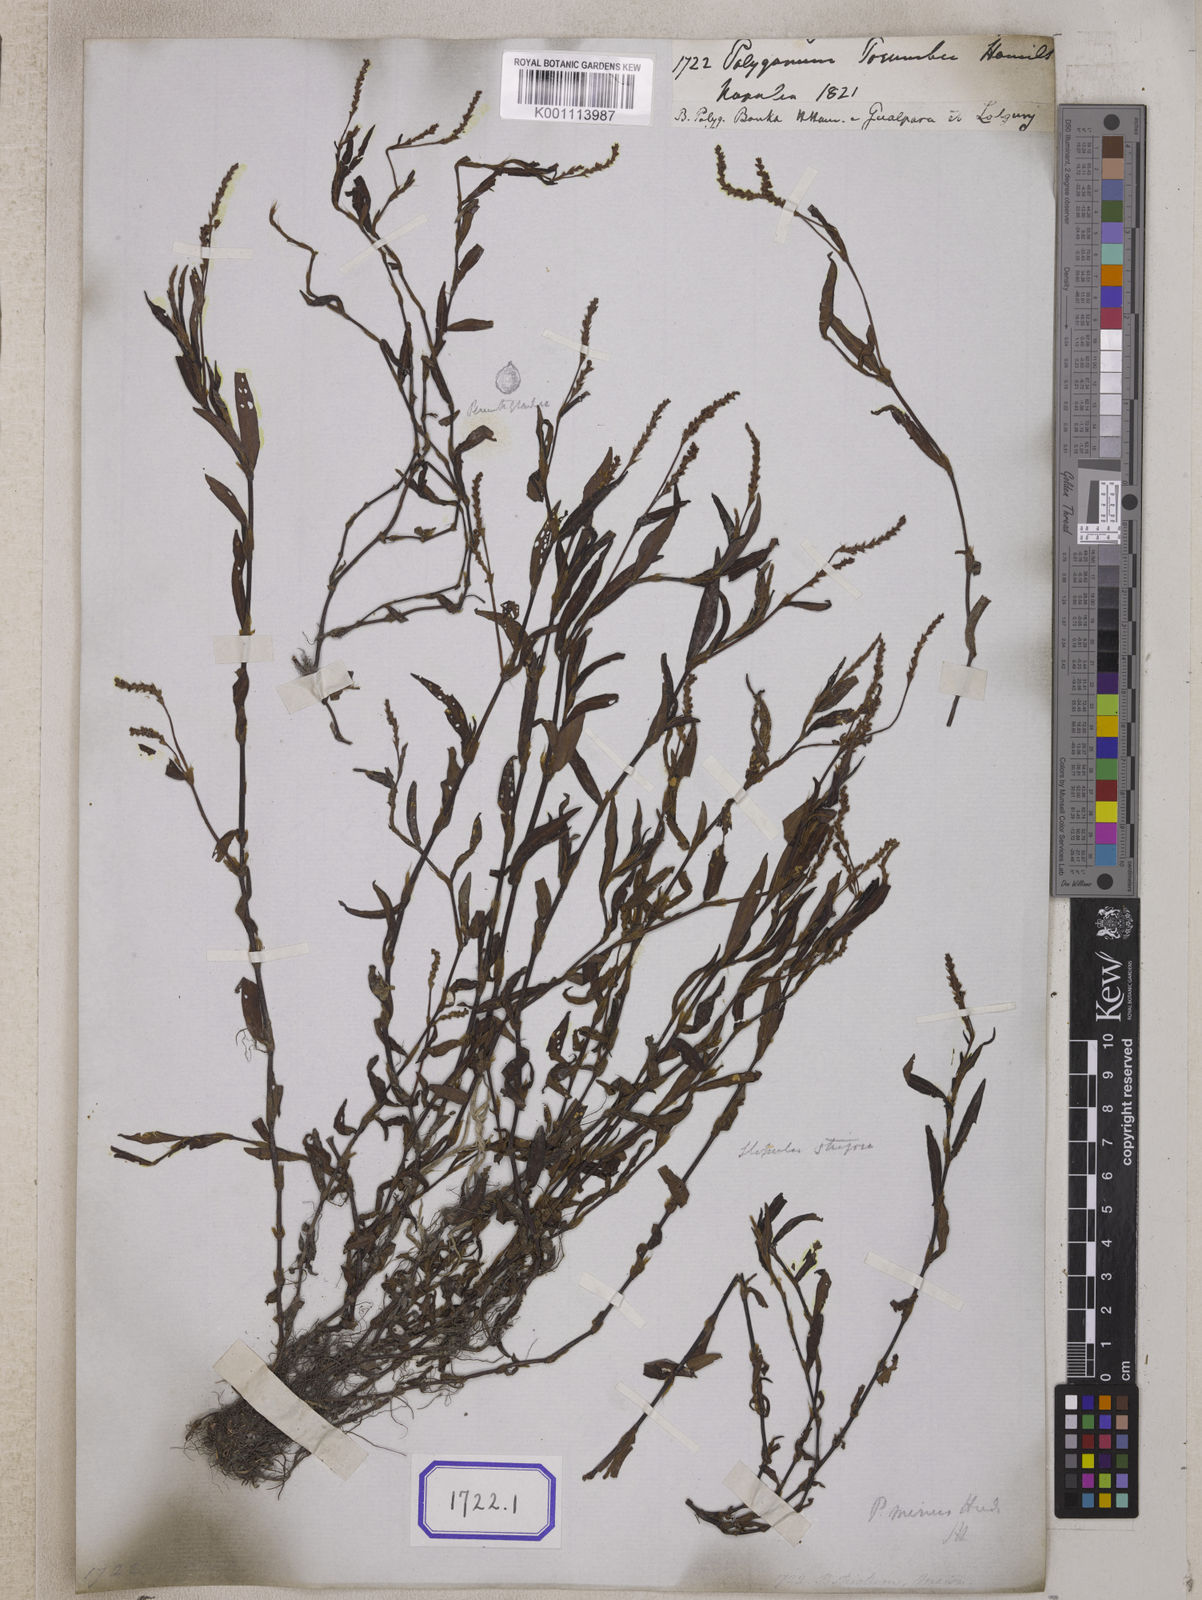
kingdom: Plantae
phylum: Tracheophyta
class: Magnoliopsida
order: Caryophyllales
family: Polygonaceae
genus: Polygonum
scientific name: Polygonum
